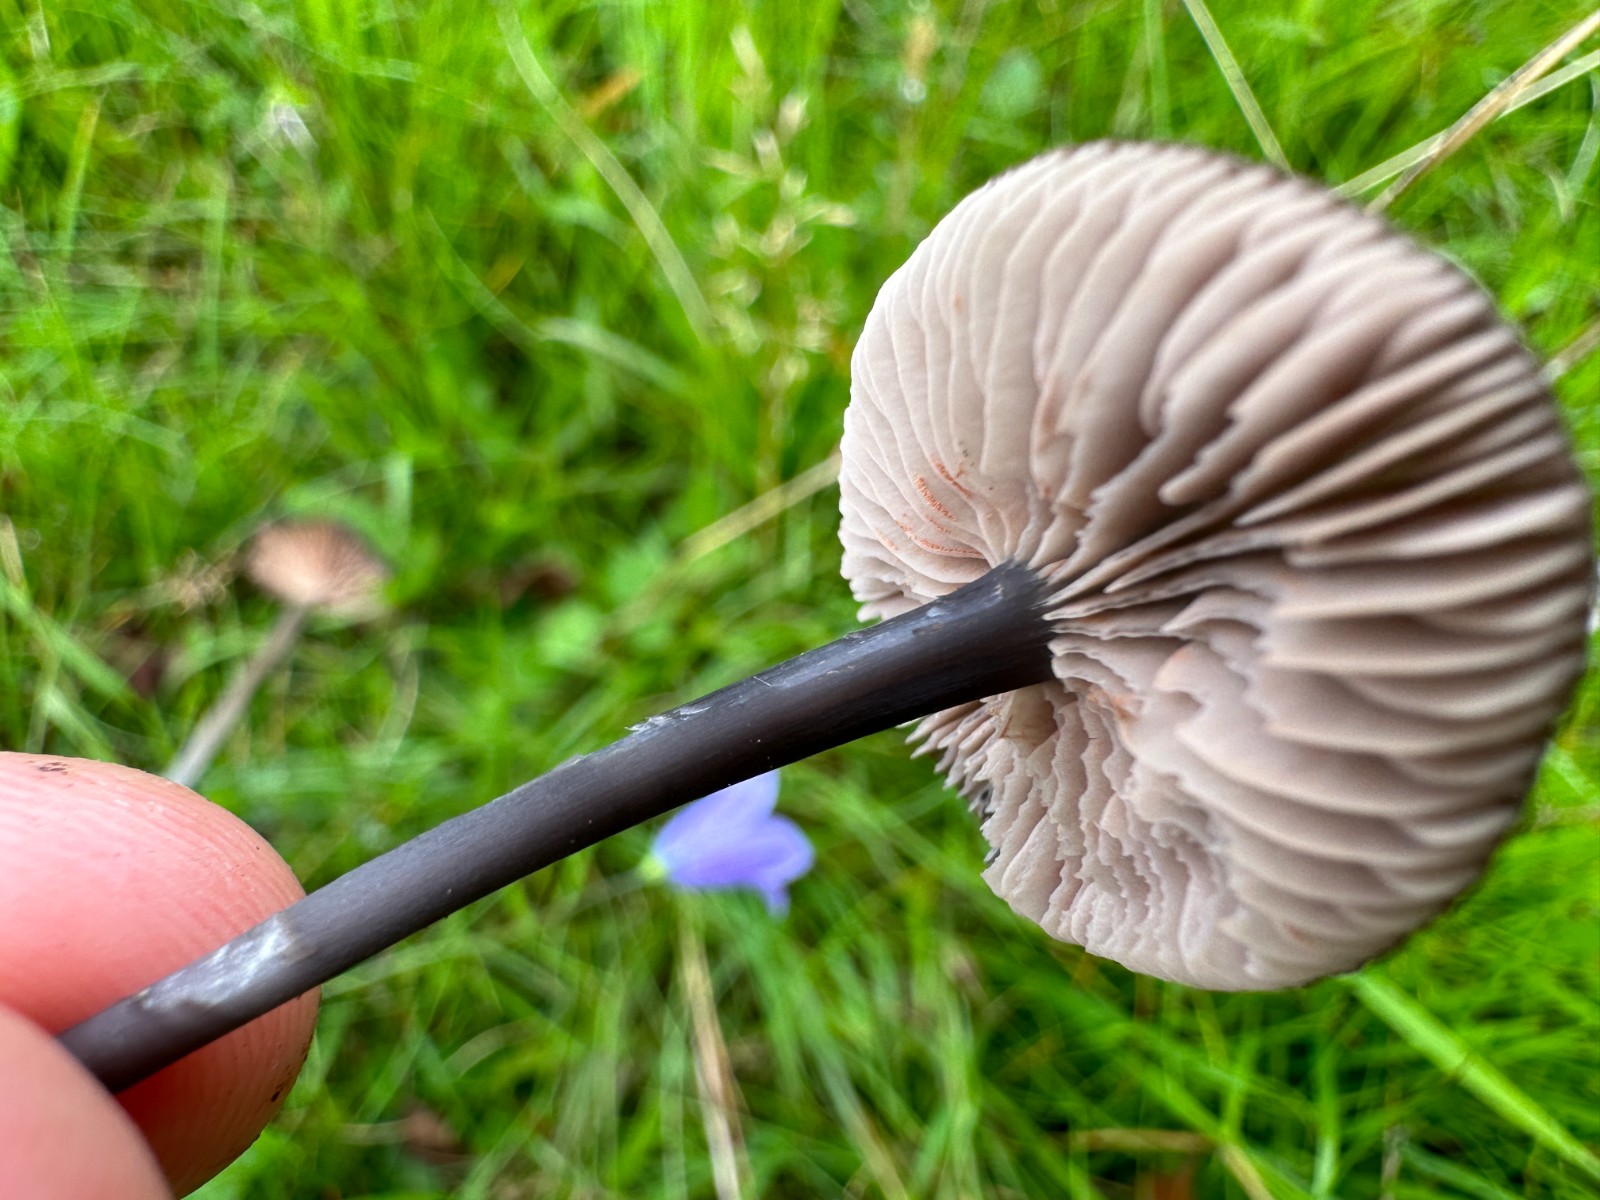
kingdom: Fungi
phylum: Basidiomycota
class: Agaricomycetes
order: Agaricales
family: Entolomataceae
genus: Entoloma
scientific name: Entoloma
